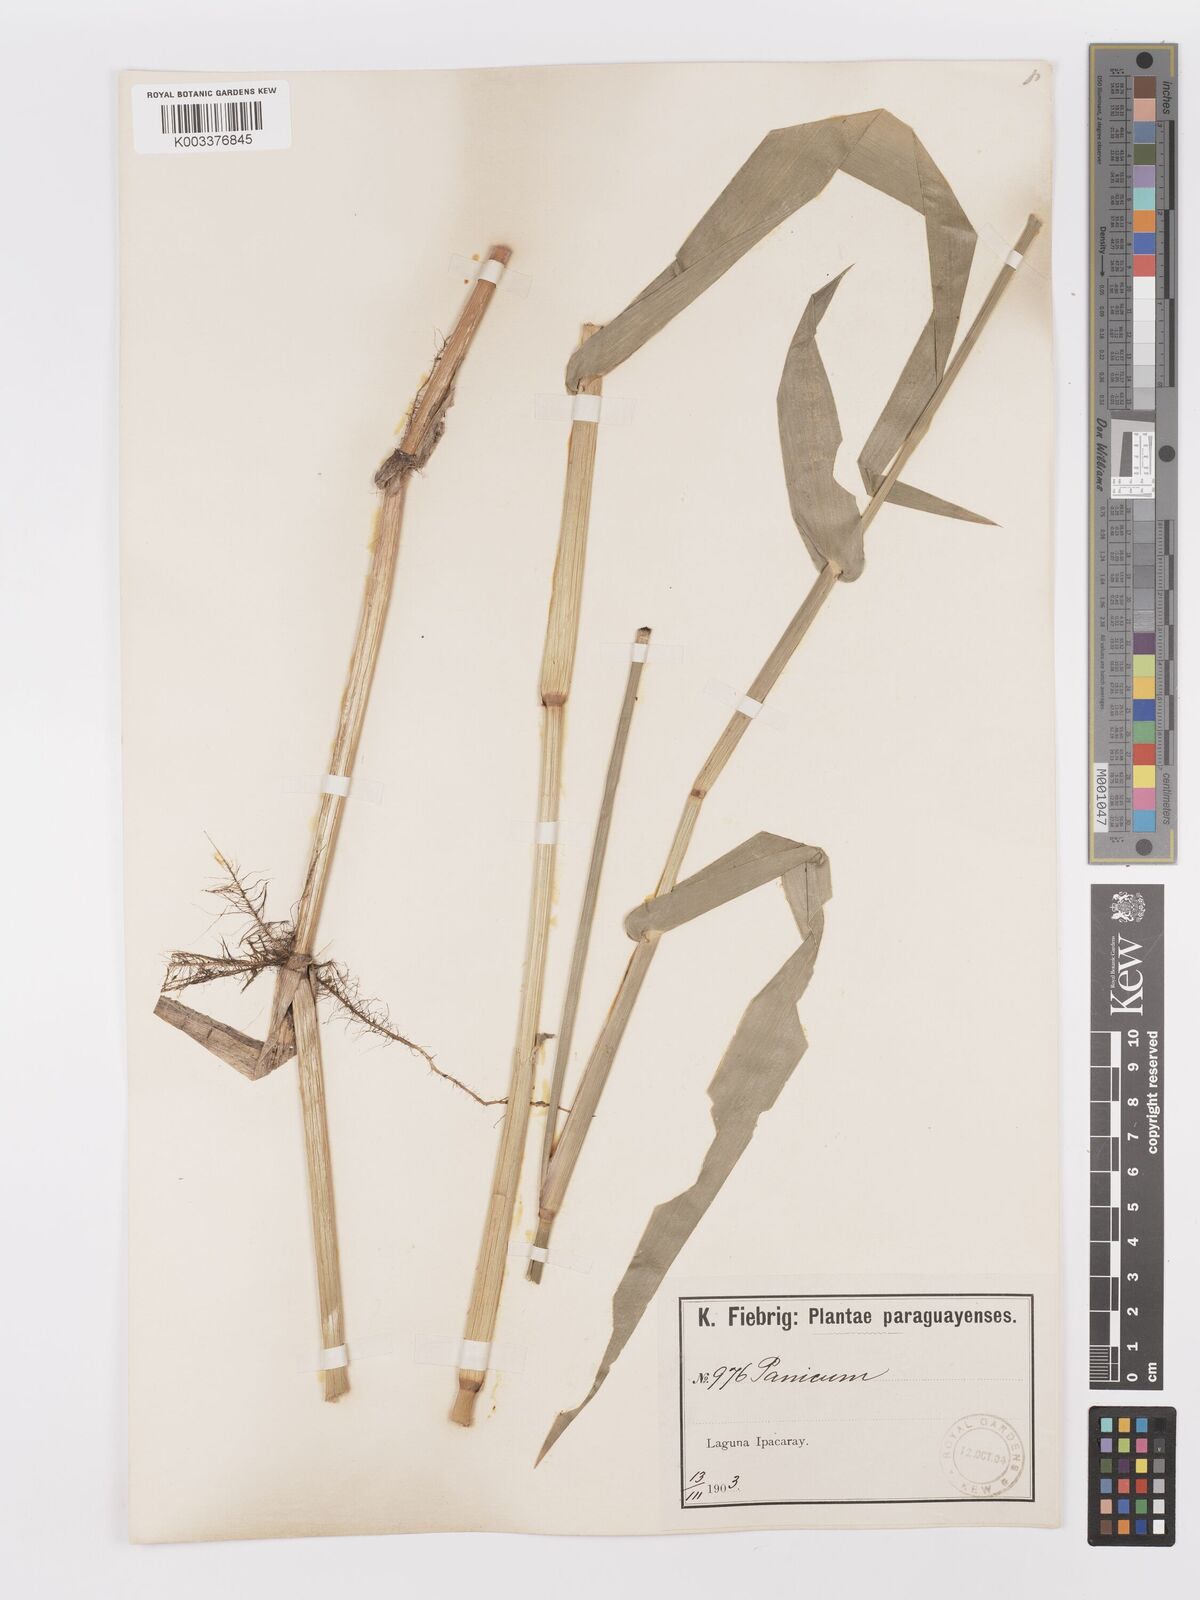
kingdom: Plantae
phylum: Tracheophyta
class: Liliopsida
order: Poales
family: Poaceae
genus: Rugoloa
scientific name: Rugoloa hylaeica
